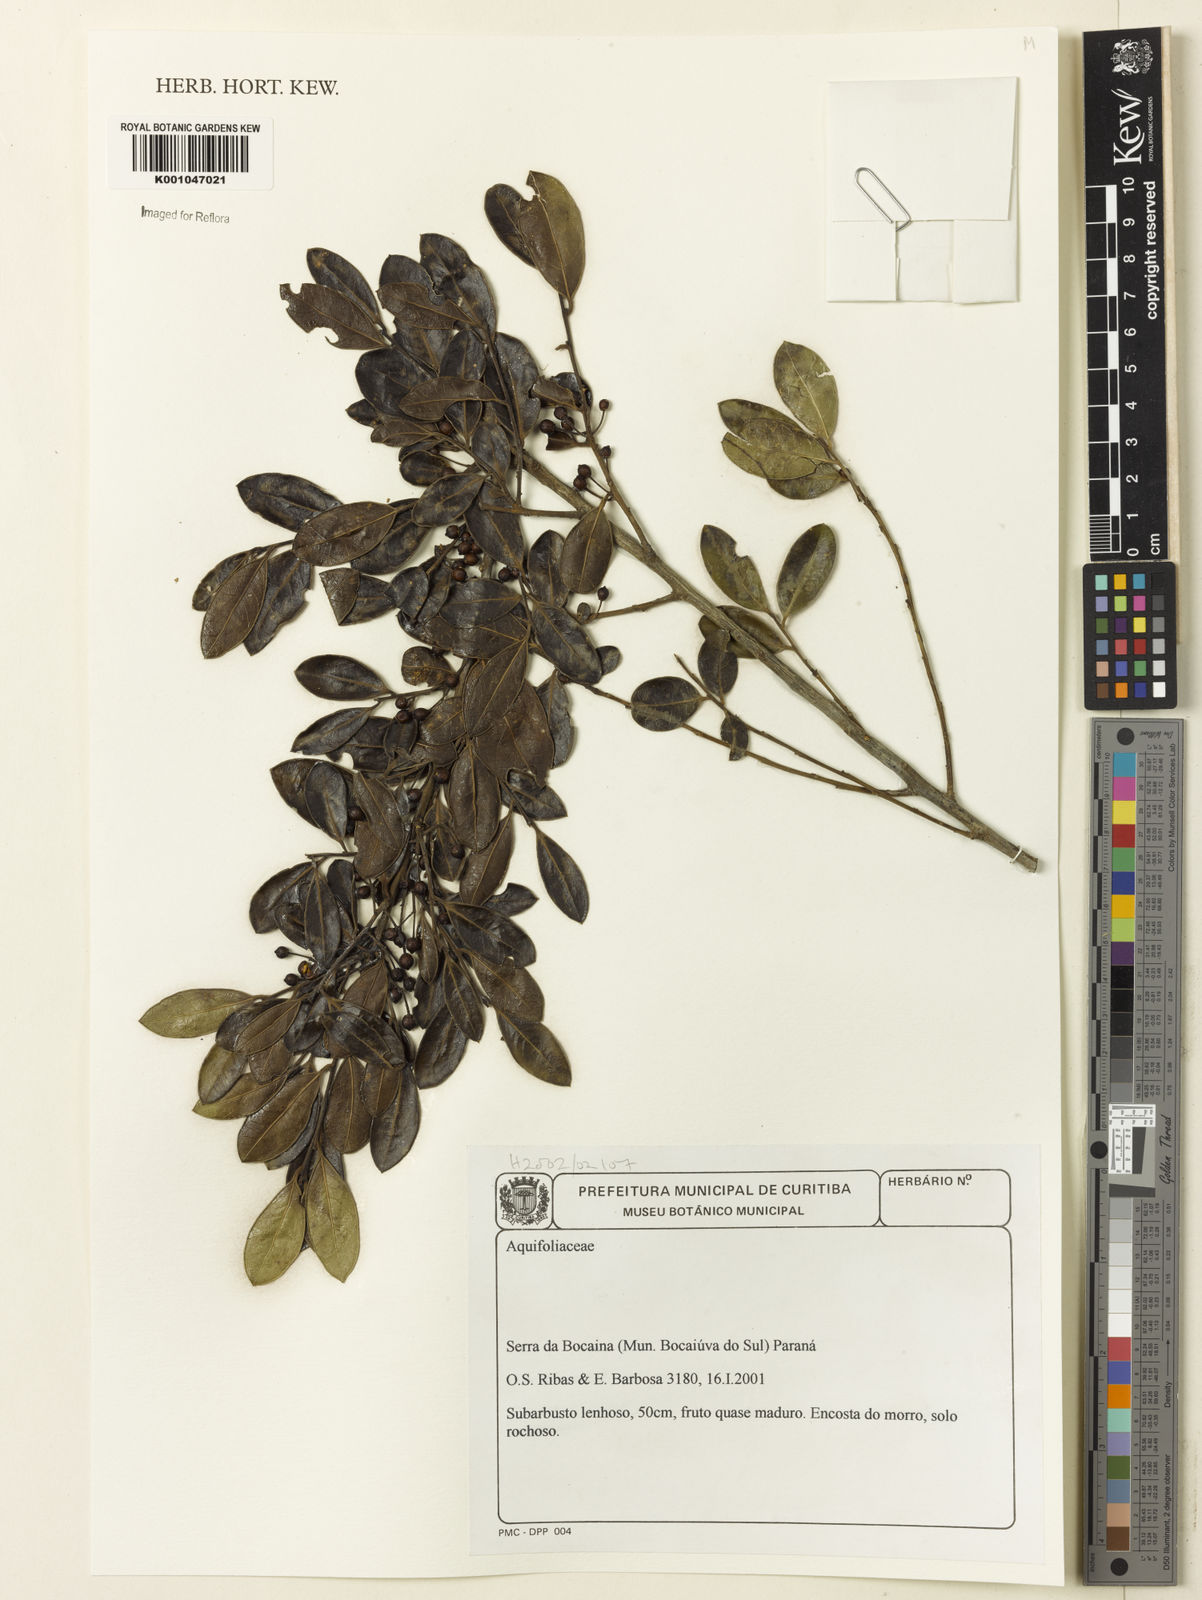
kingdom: Plantae
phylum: Tracheophyta
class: Magnoliopsida
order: Aquifoliales
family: Aquifoliaceae
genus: Ilex
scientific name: Ilex
